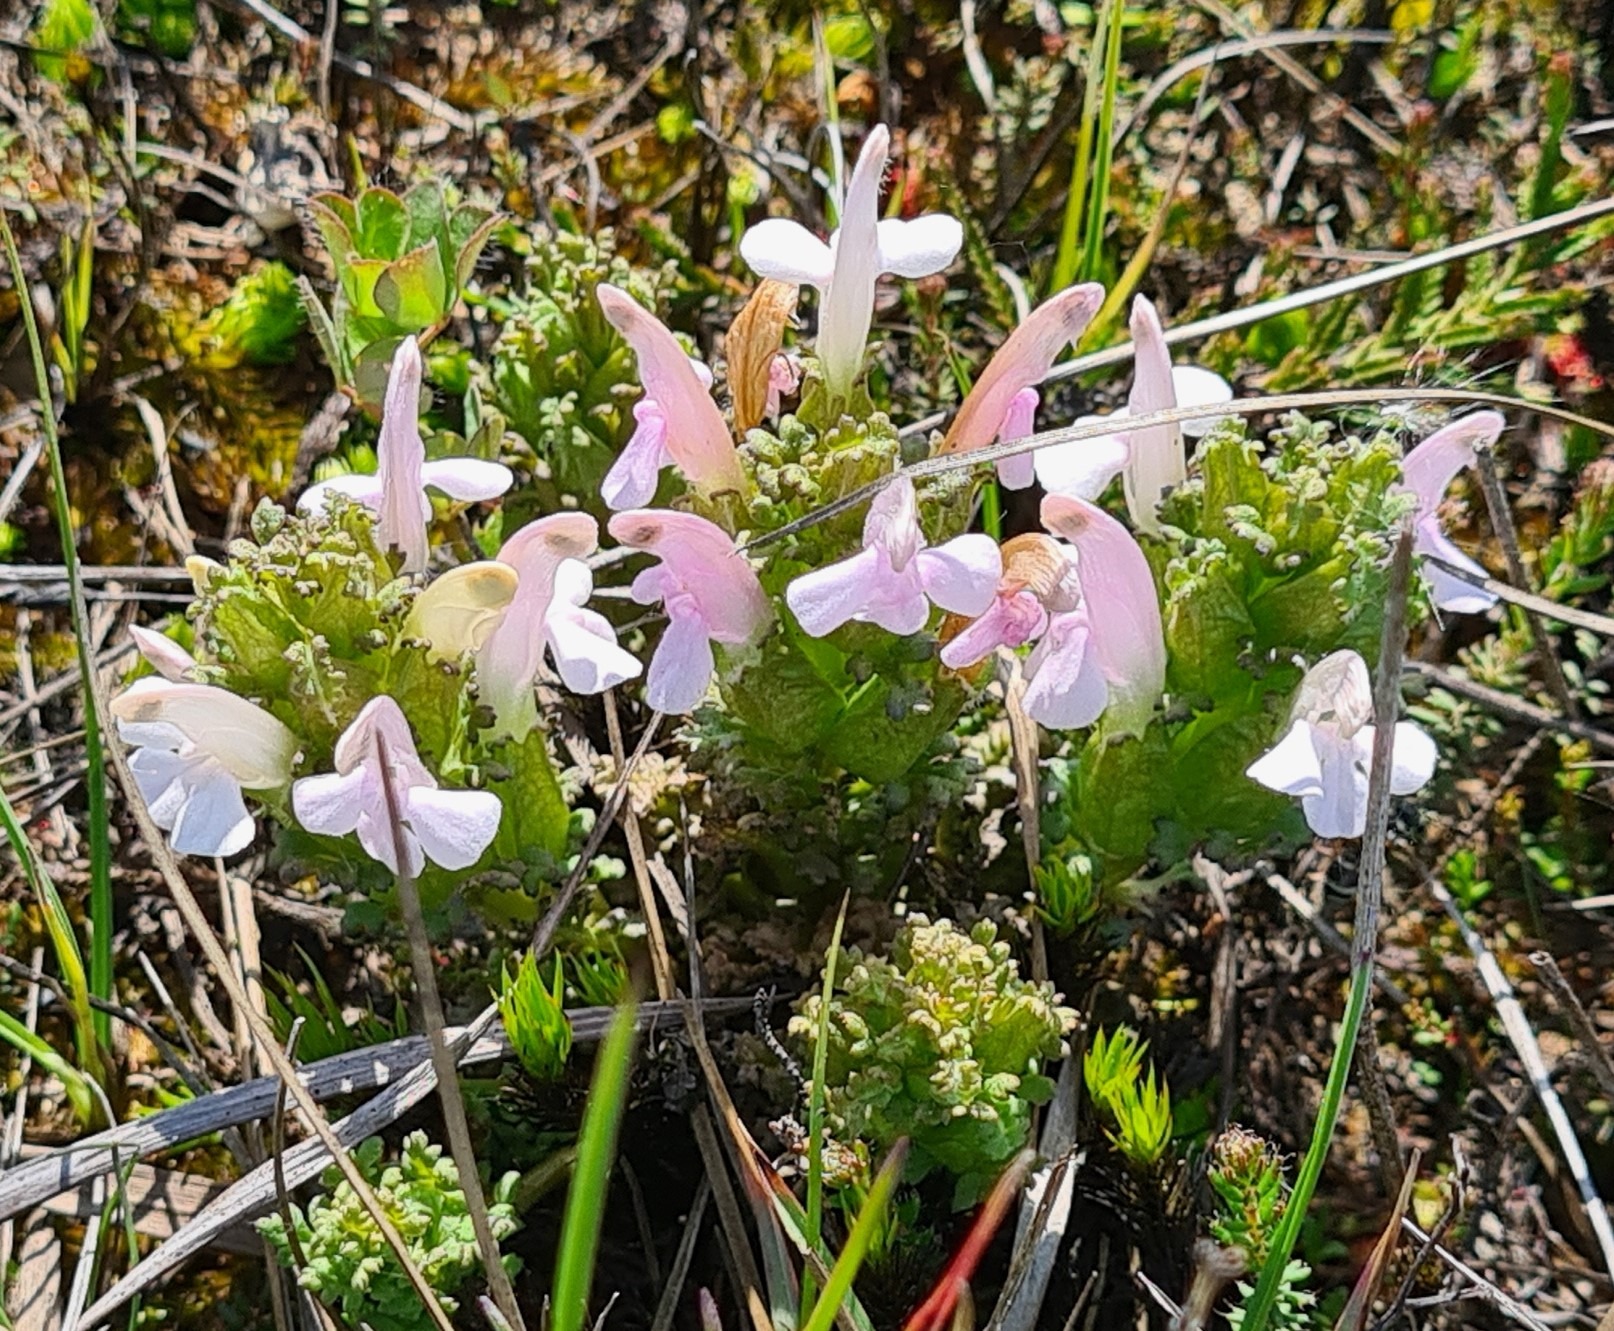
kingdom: Plantae
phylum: Tracheophyta
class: Magnoliopsida
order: Lamiales
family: Orobanchaceae
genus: Pedicularis
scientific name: Pedicularis sylvatica
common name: Mose-troldurt
